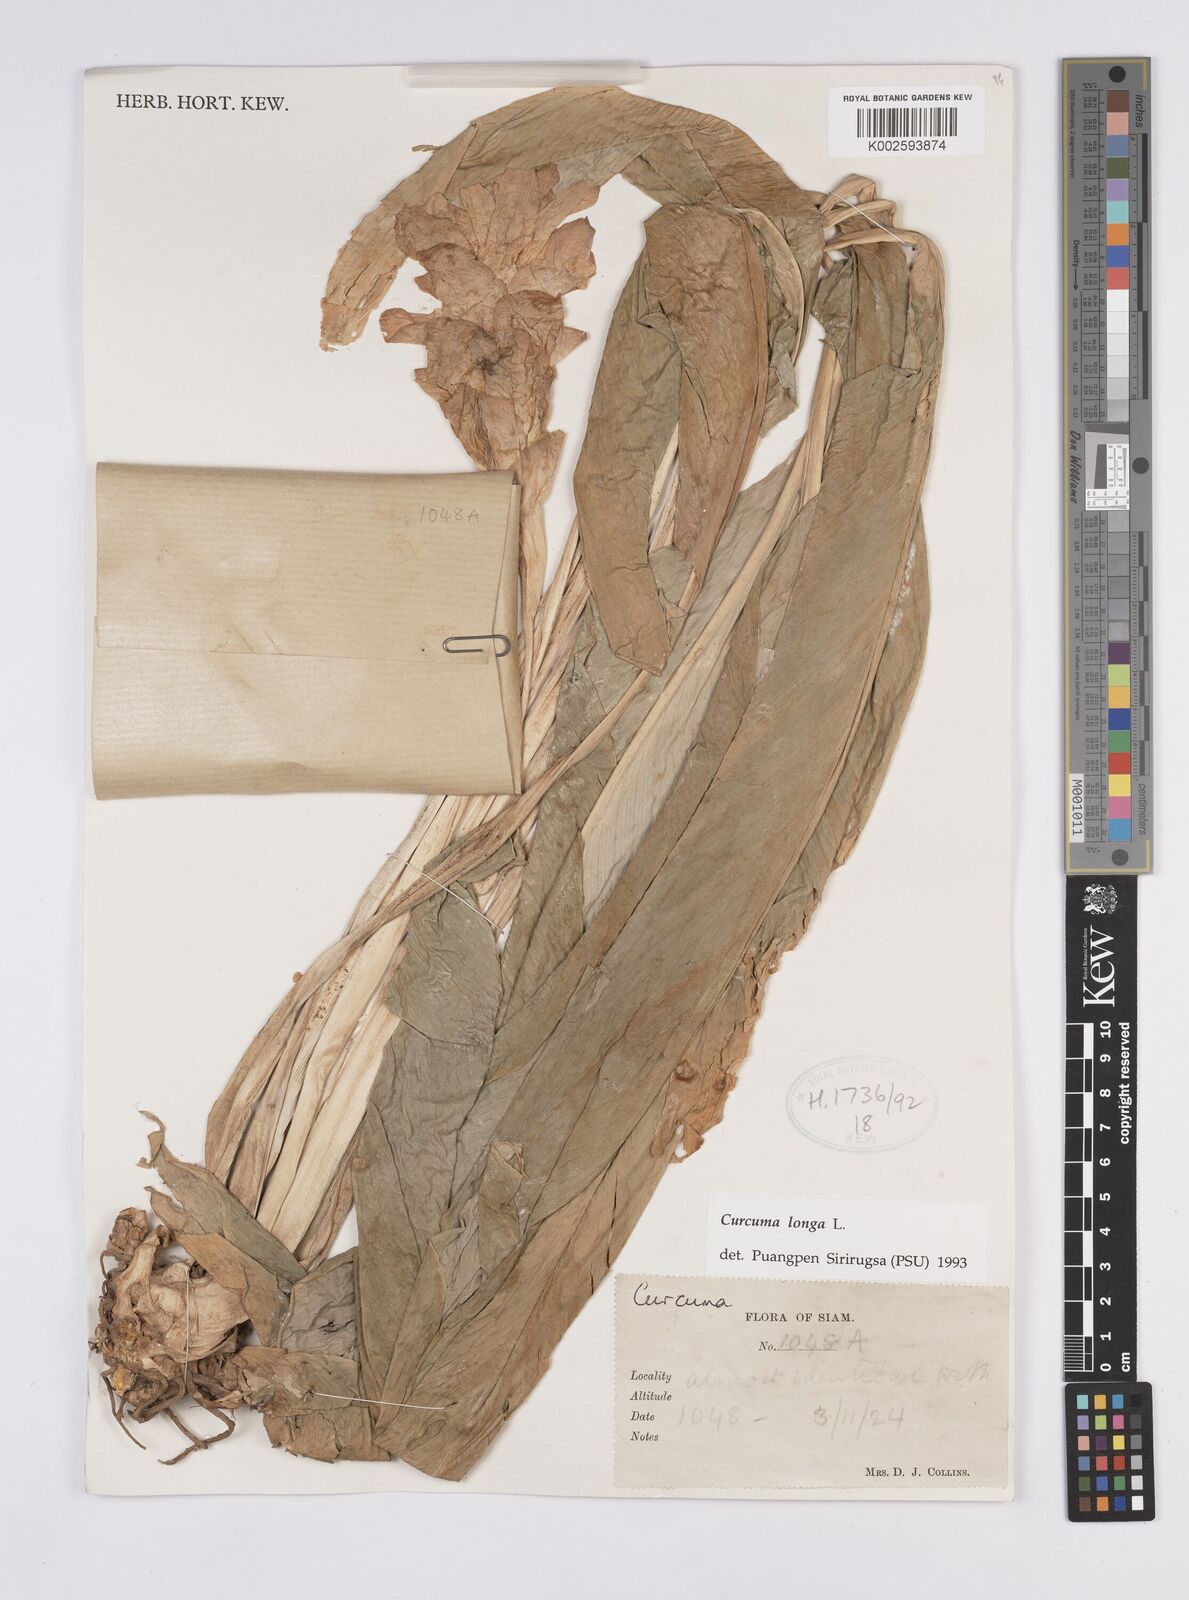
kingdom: Plantae
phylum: Tracheophyta
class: Liliopsida
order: Zingiberales
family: Zingiberaceae
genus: Curcuma
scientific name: Curcuma longa
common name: Turmeric
